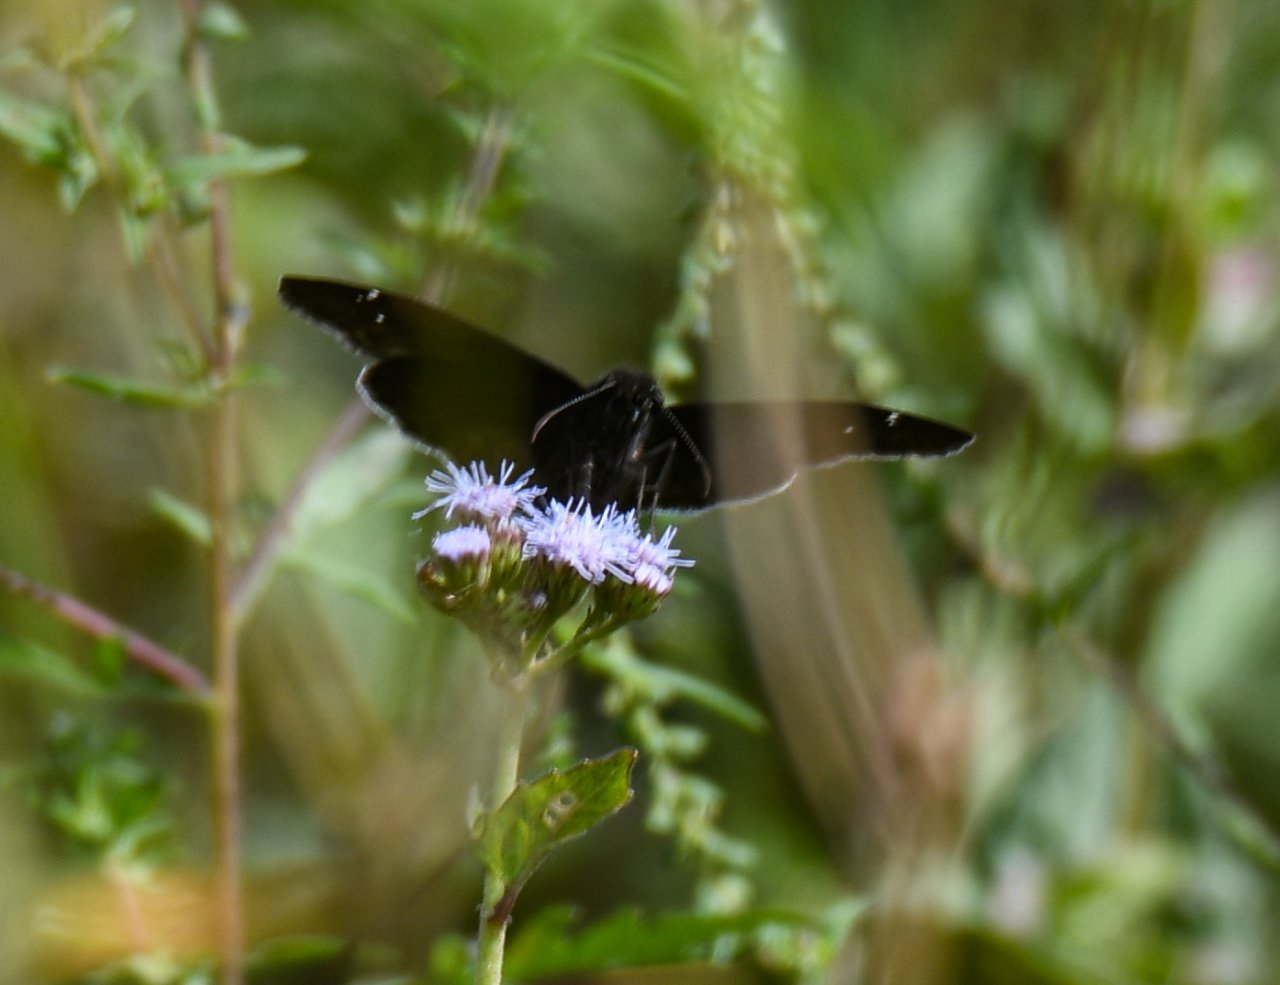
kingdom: Animalia
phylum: Arthropoda
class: Insecta
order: Lepidoptera
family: Hesperiidae
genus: Erynnis
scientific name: Erynnis funeralis
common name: Funereal Duskywing
